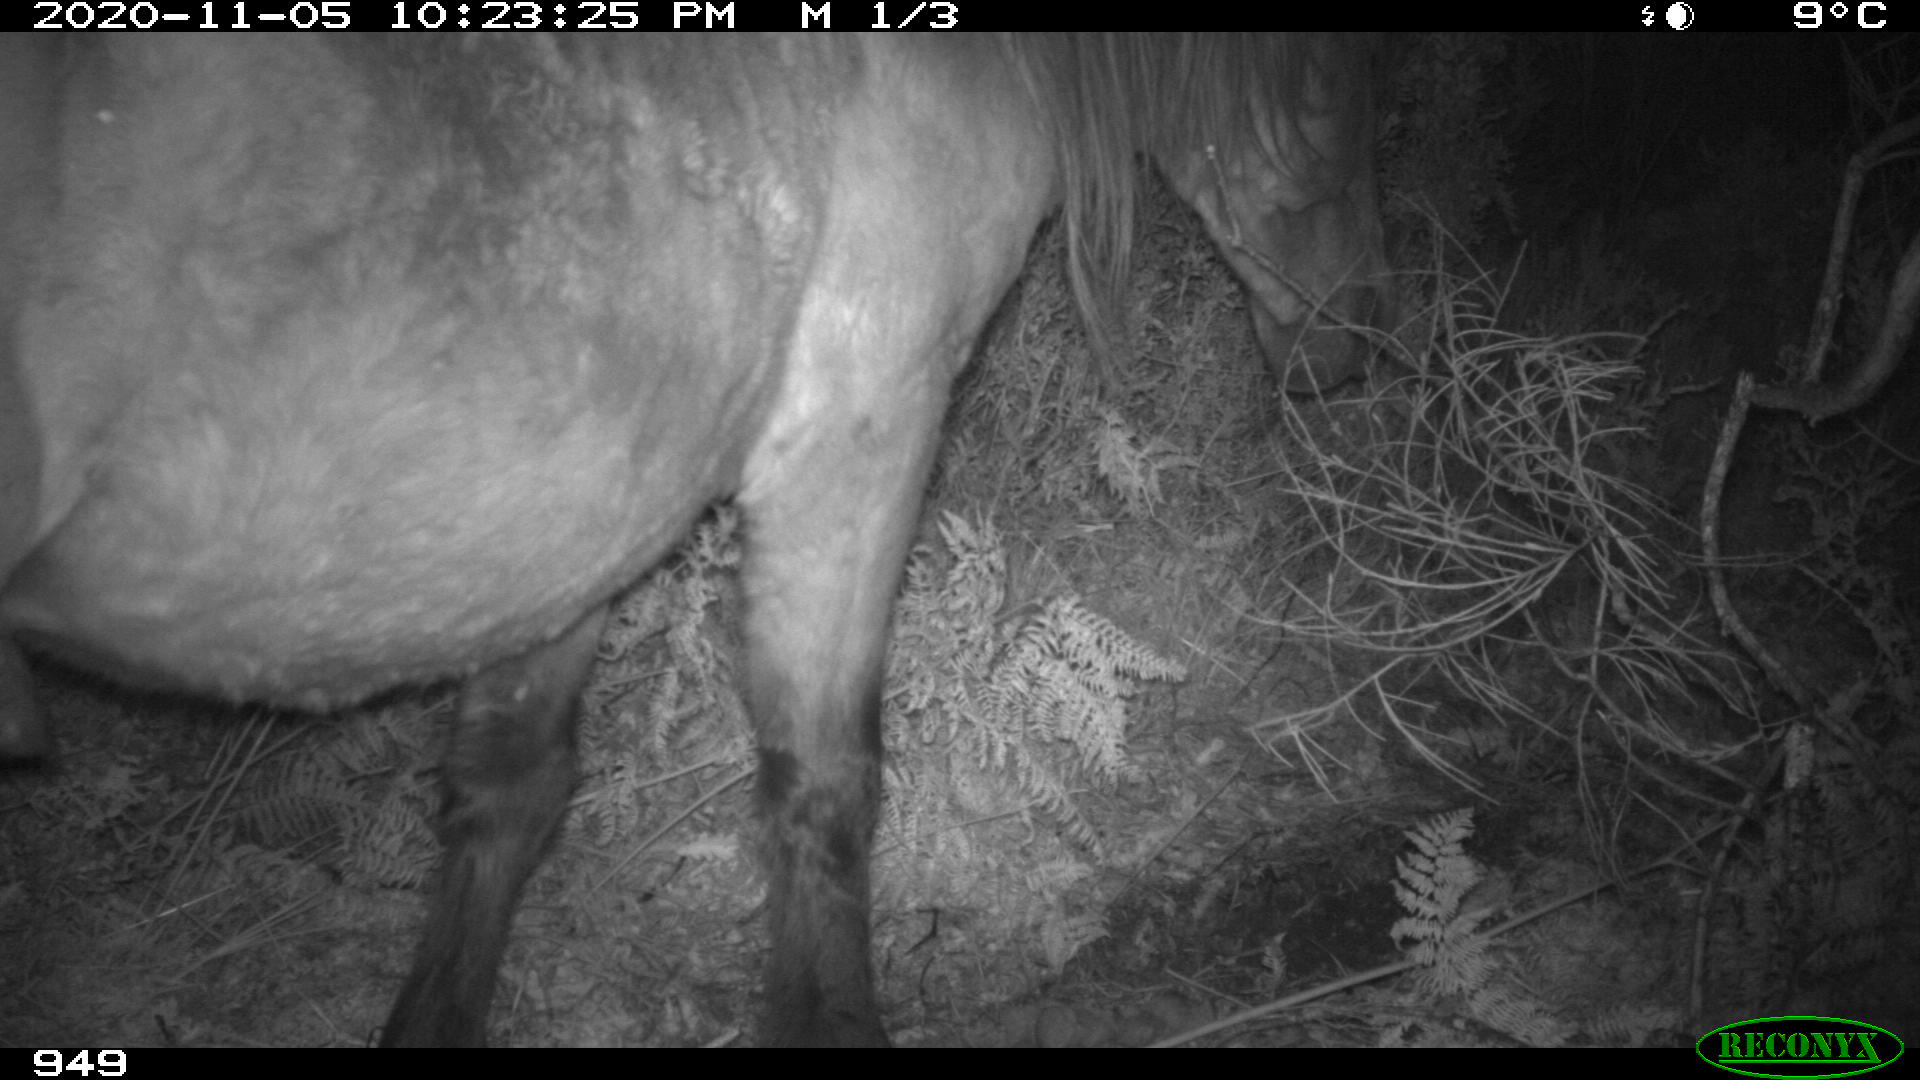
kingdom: Animalia
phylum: Chordata
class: Mammalia
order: Perissodactyla
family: Equidae
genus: Equus
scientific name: Equus caballus
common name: Horse
